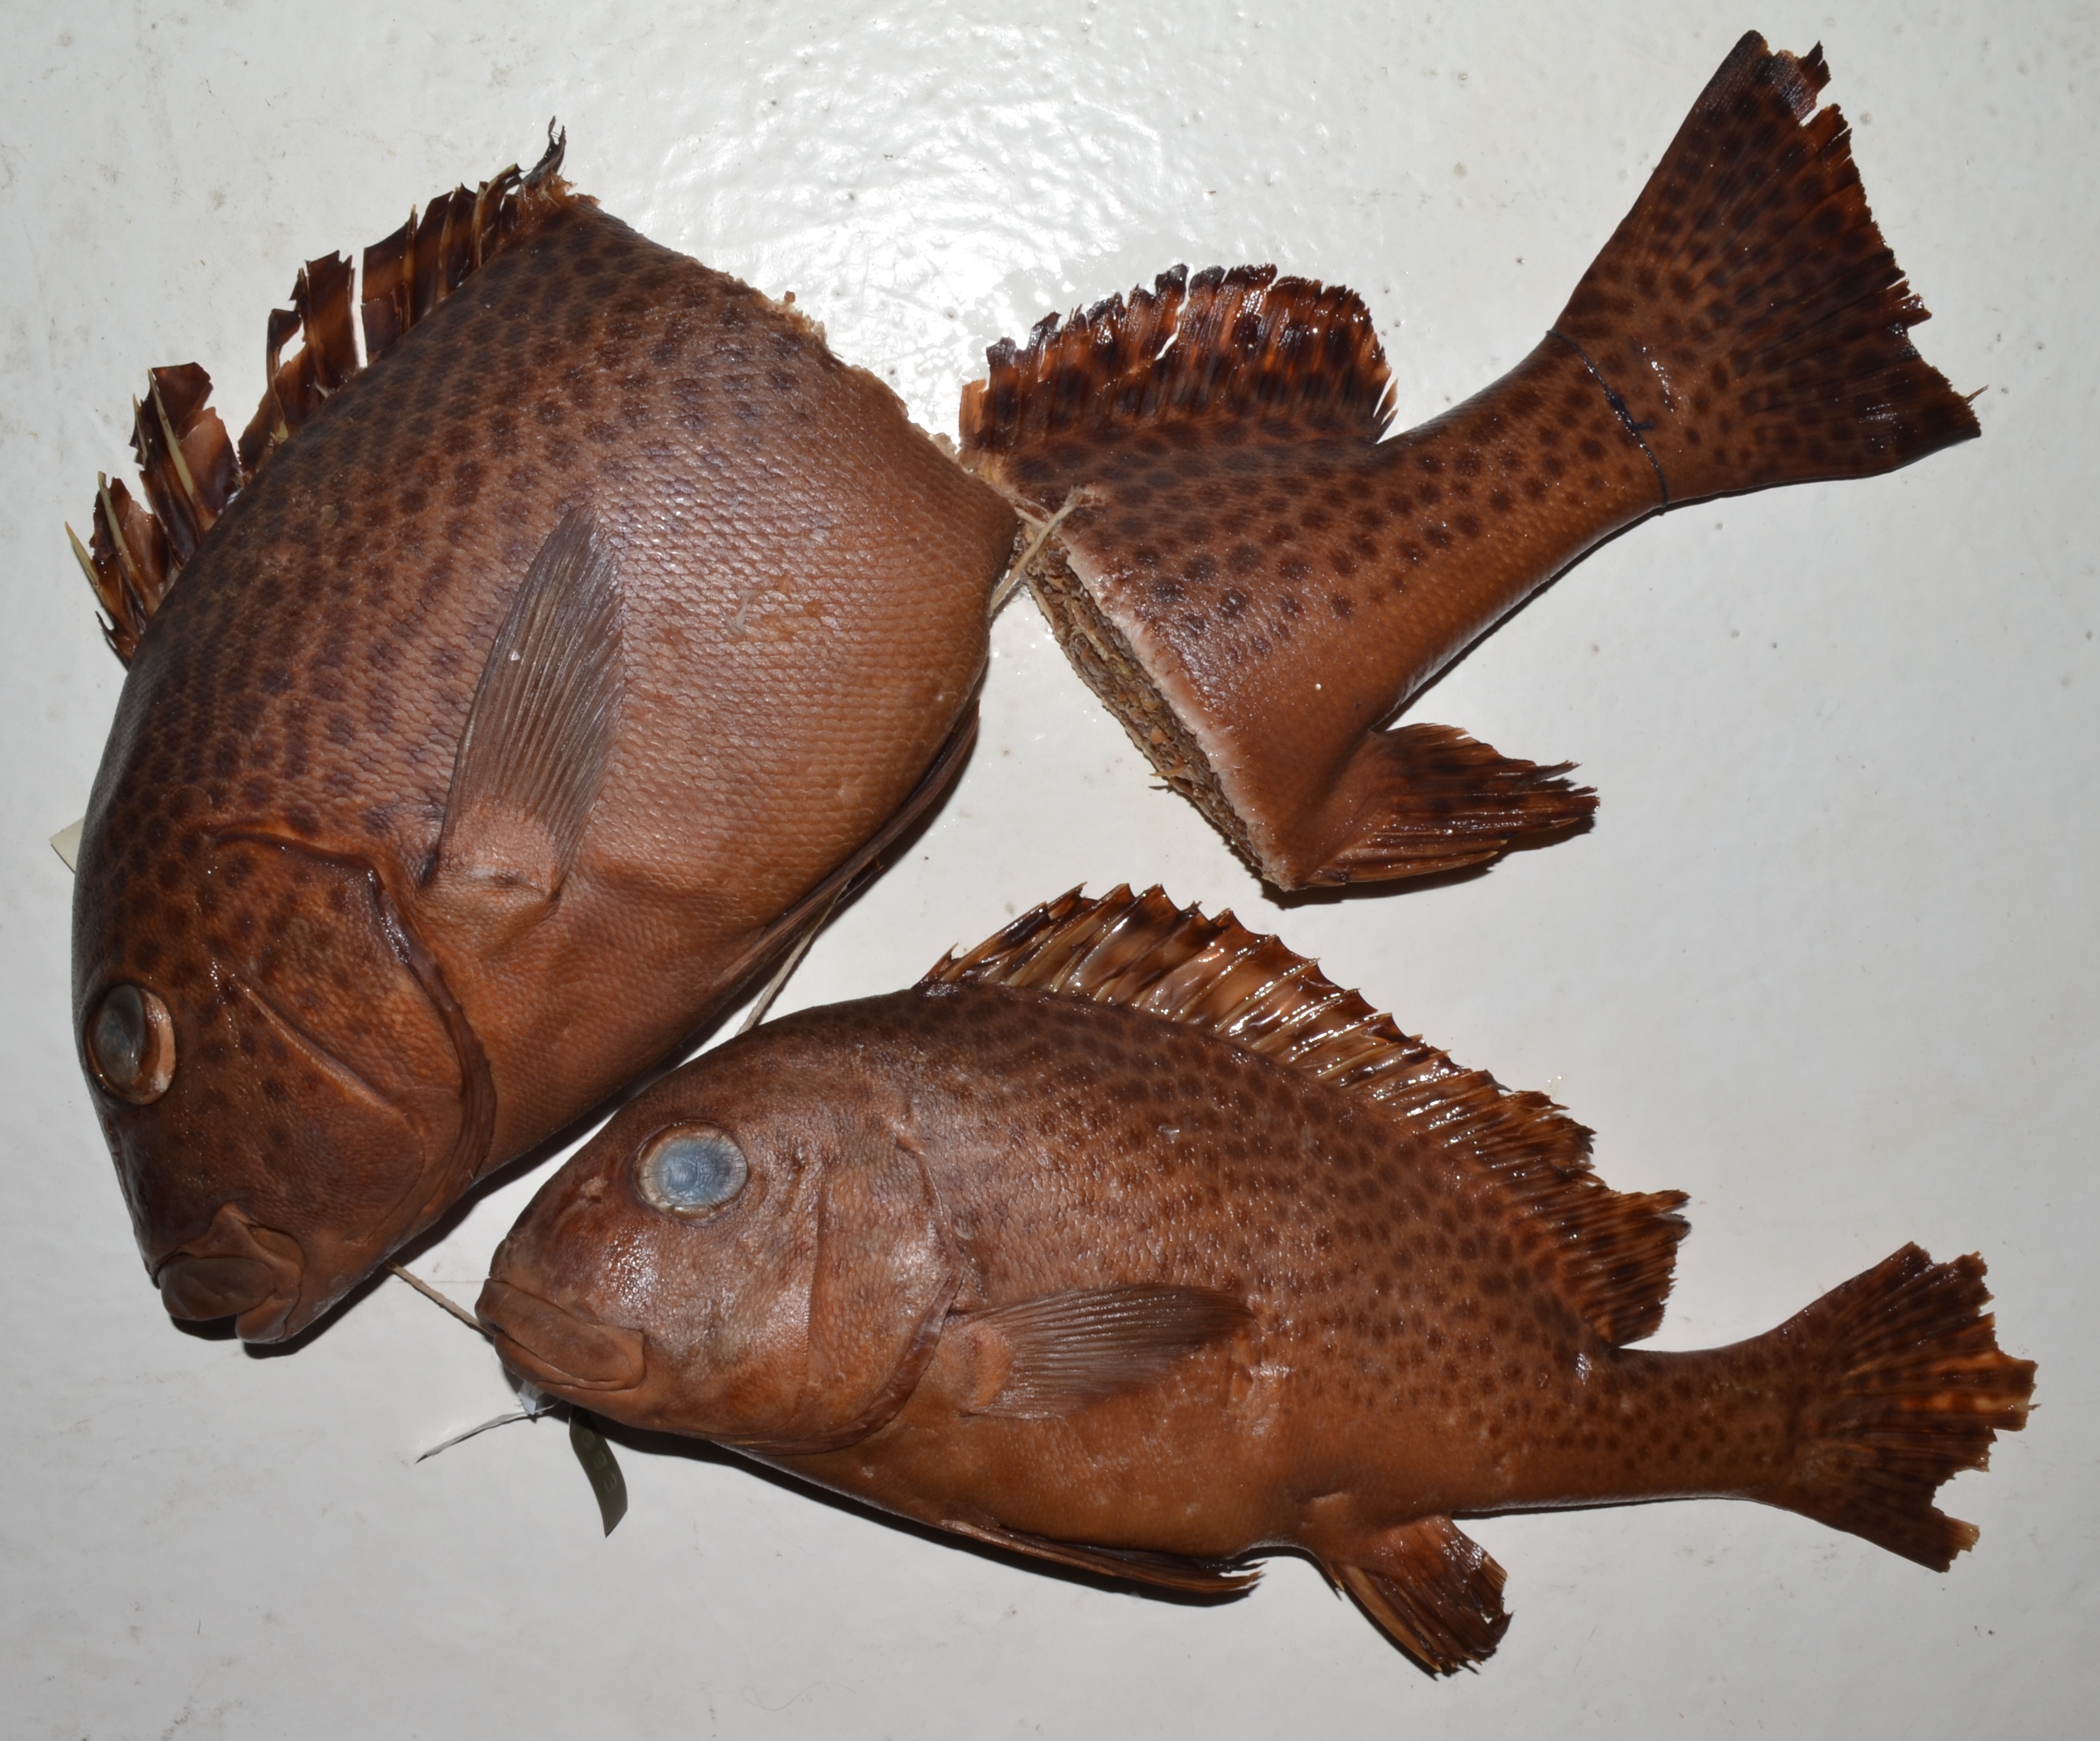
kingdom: Animalia
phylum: Chordata
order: Perciformes
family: Haemulidae
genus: Pomadasys
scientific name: Pomadasys commersonnii
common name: Smallspotted grunter
